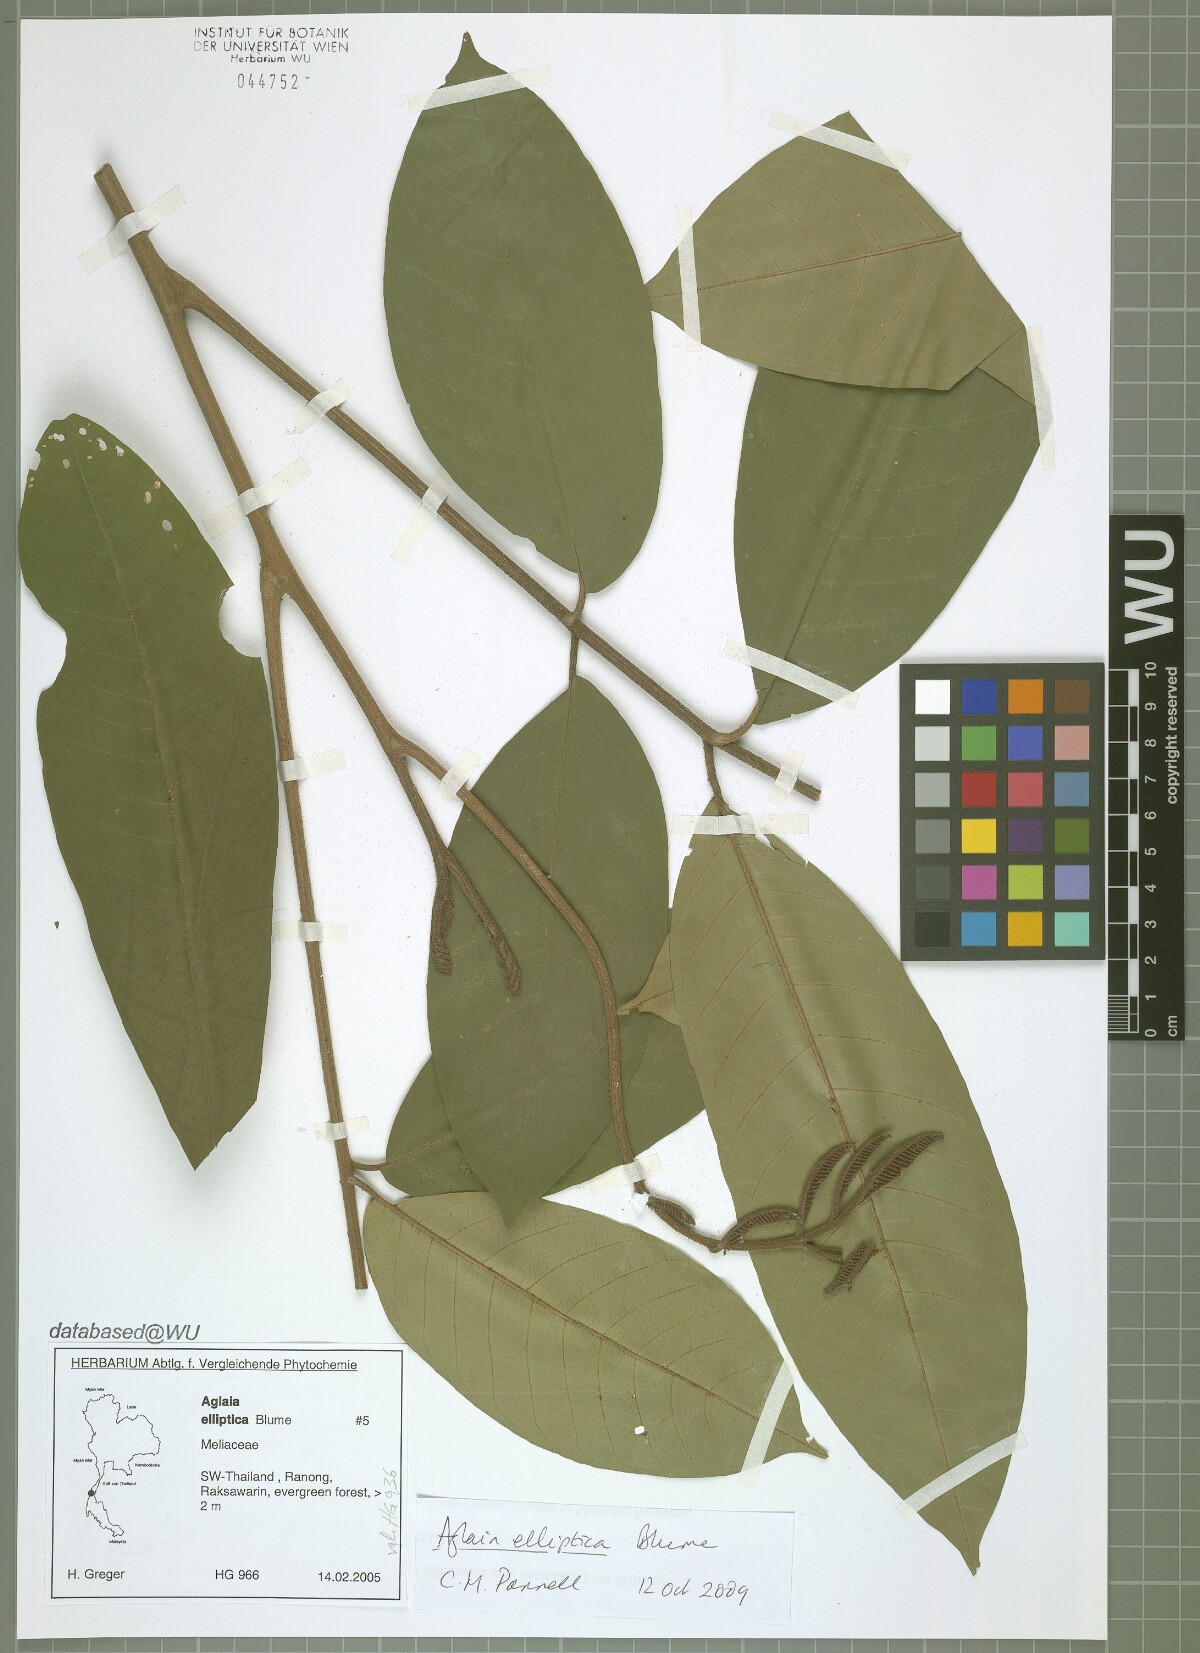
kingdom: Plantae
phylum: Tracheophyta
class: Magnoliopsida
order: Sapindales
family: Meliaceae
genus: Aglaia
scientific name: Aglaia elliptica
